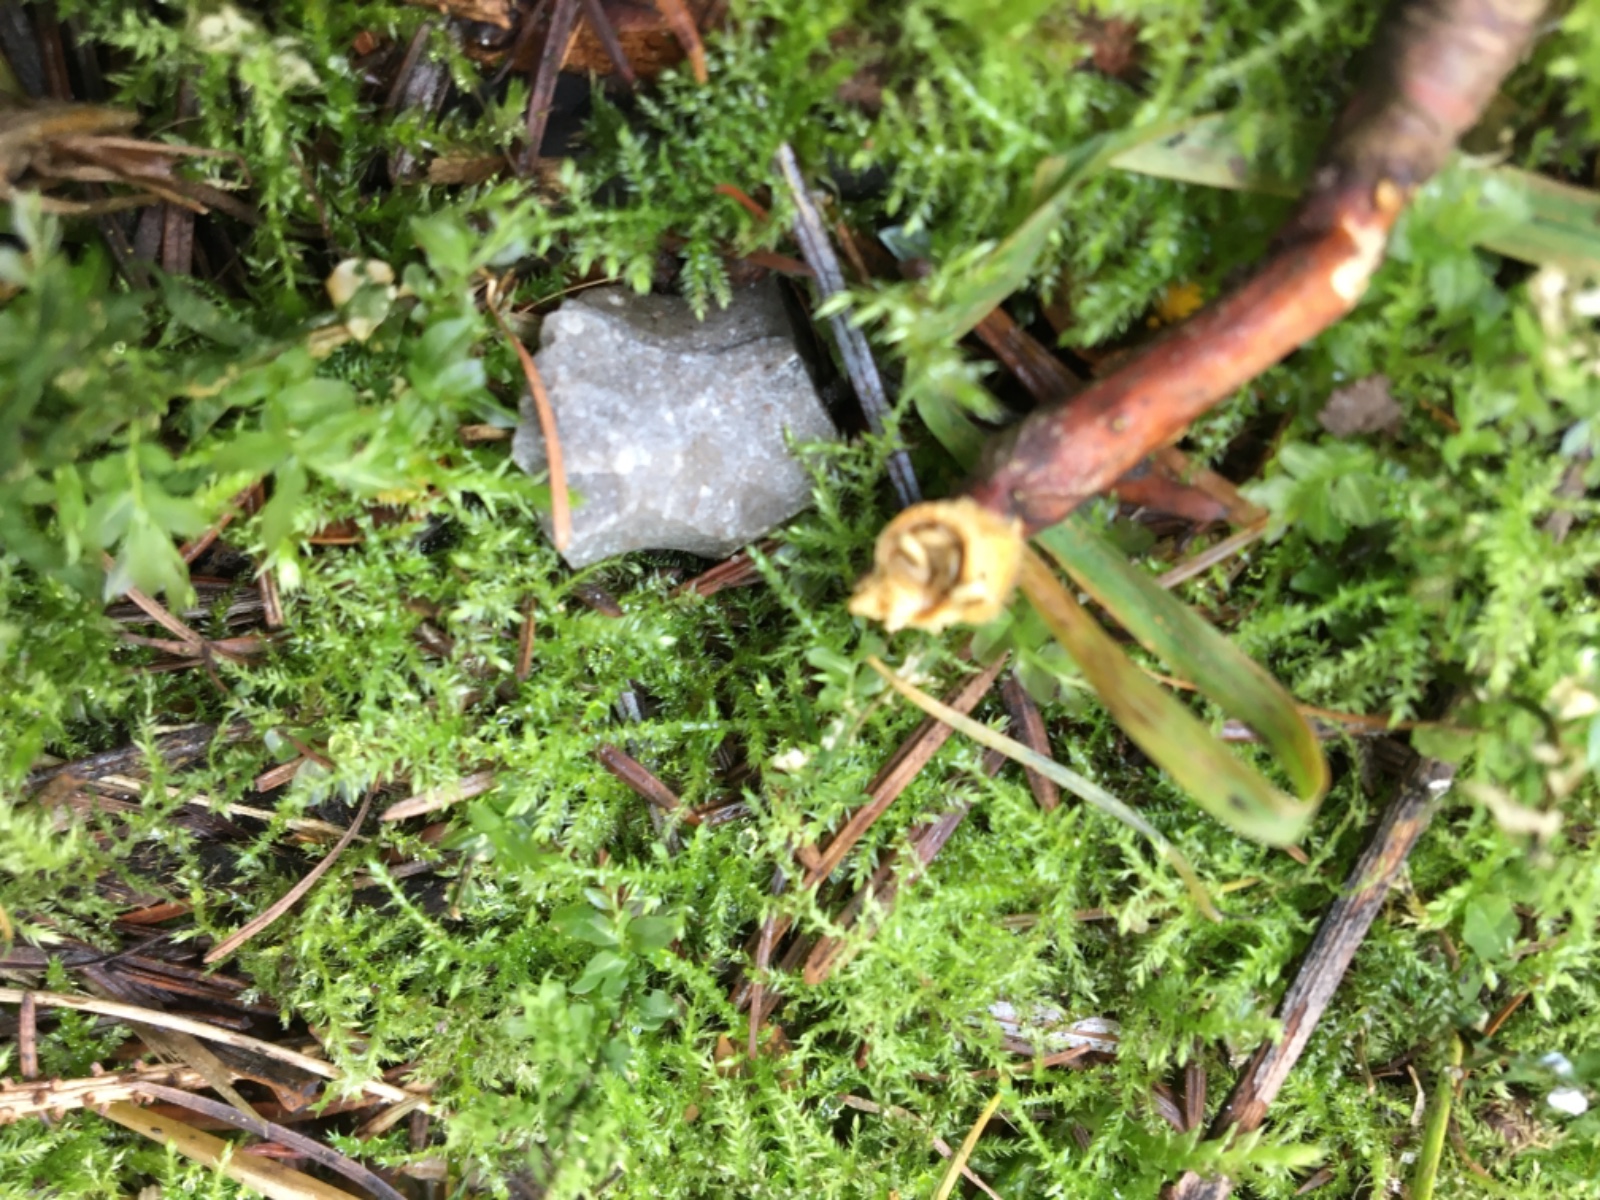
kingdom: Fungi
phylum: Basidiomycota
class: Agaricomycetes
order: Agaricales
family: Nidulariaceae
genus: Crucibulum
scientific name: Crucibulum crucibuliforme
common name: krukkesvamp
